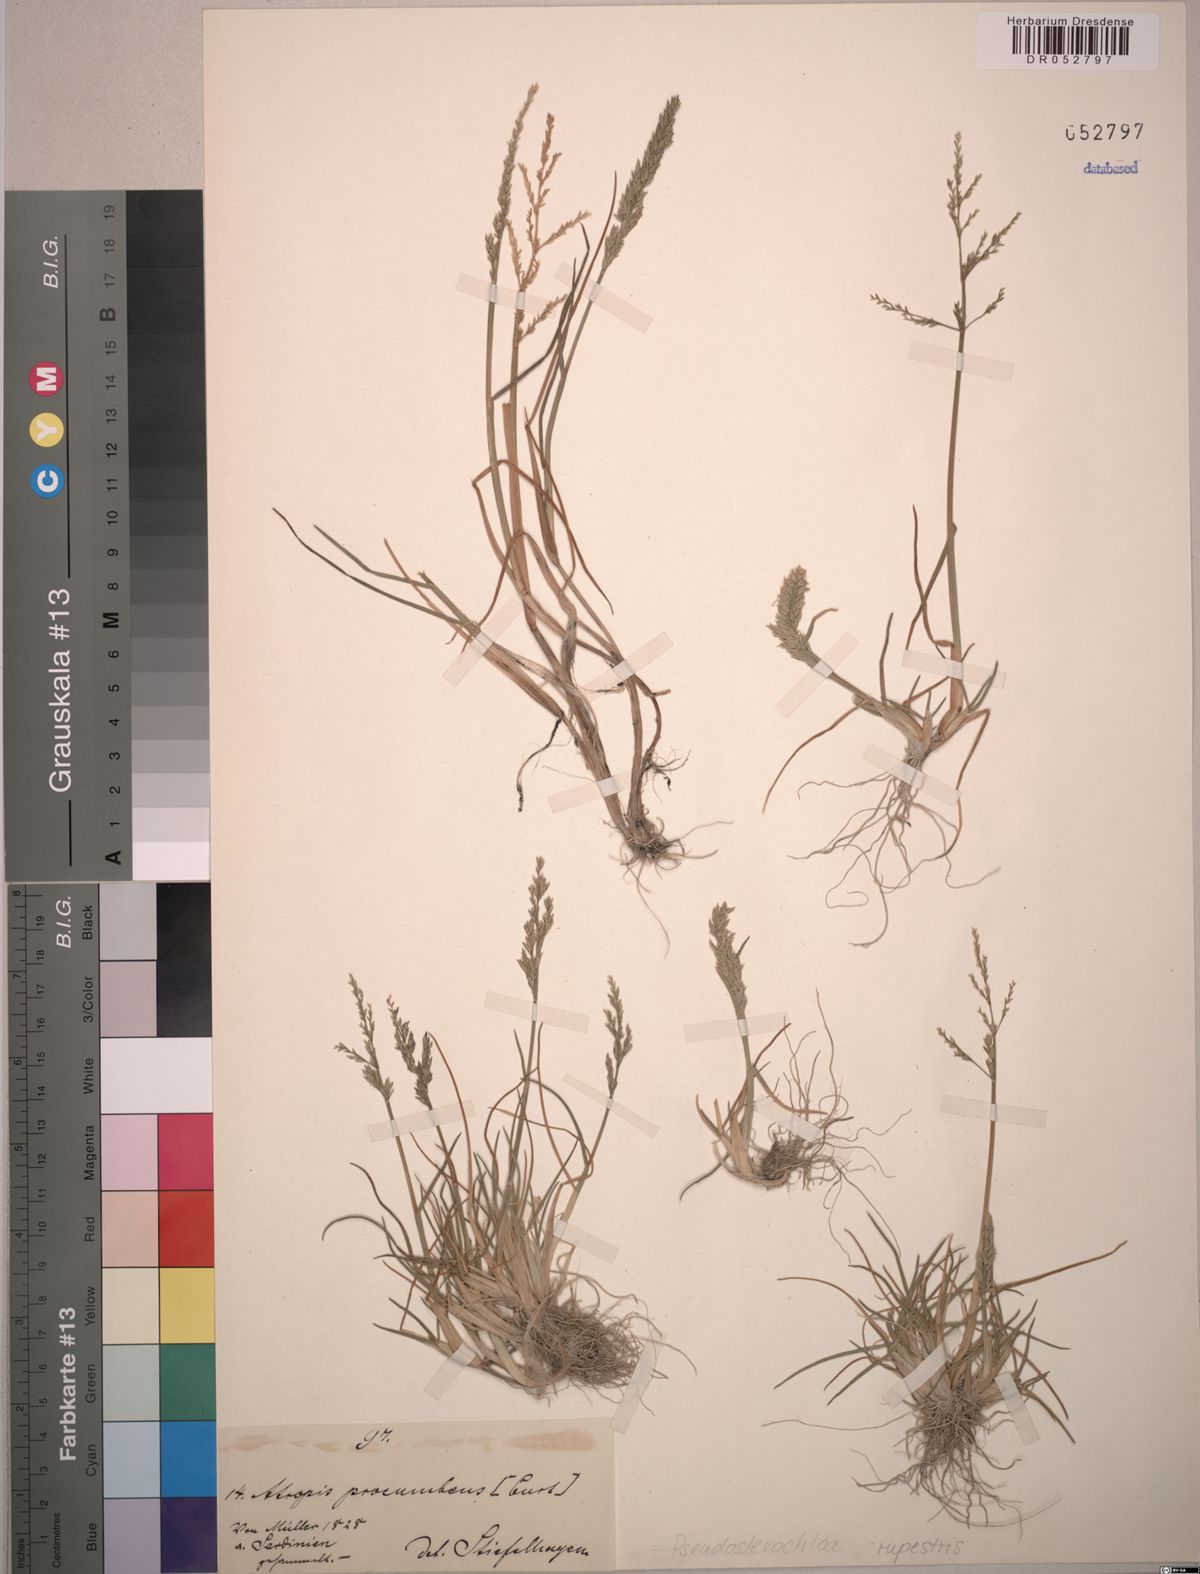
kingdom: Plantae
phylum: Tracheophyta
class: Liliopsida
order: Poales
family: Poaceae
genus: Puccinellia
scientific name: Puccinellia rupestris
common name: Stiff saltmarsh-grass
